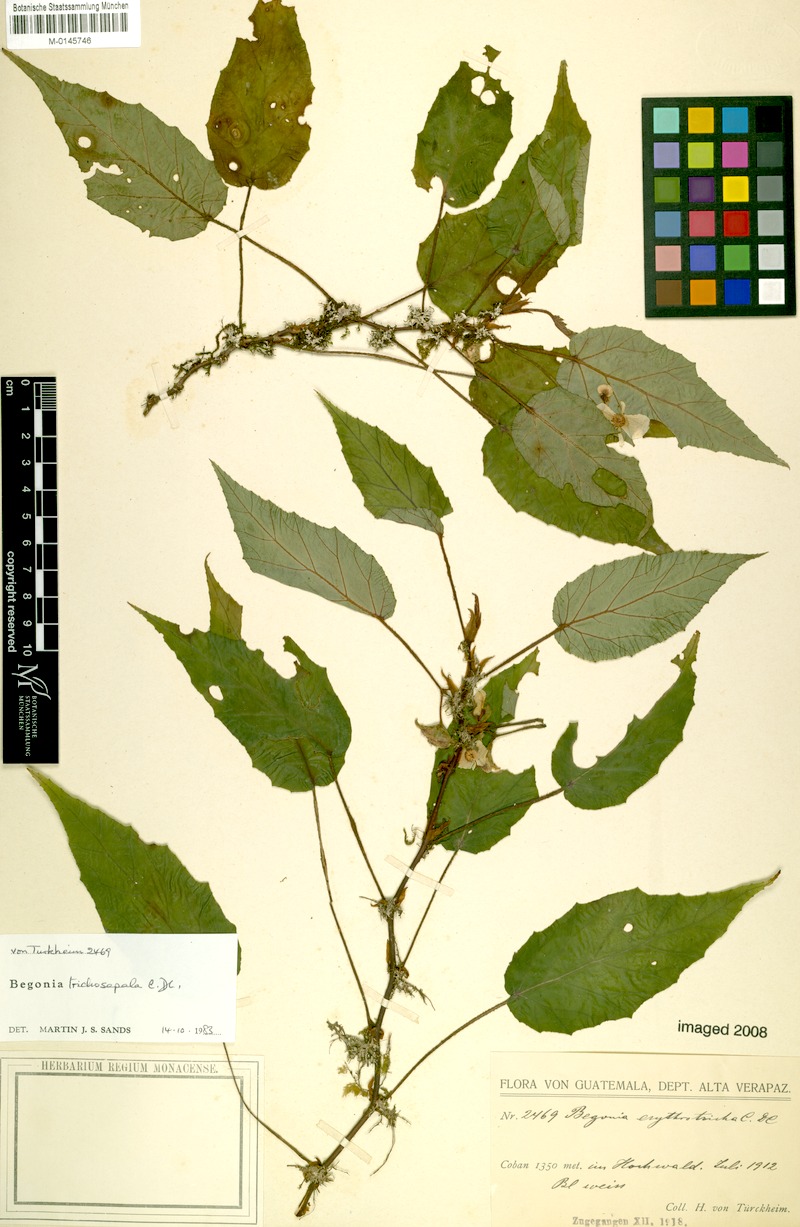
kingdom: Plantae
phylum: Tracheophyta
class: Magnoliopsida
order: Cucurbitales
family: Begoniaceae
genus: Begonia
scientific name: Begonia trichosepala
